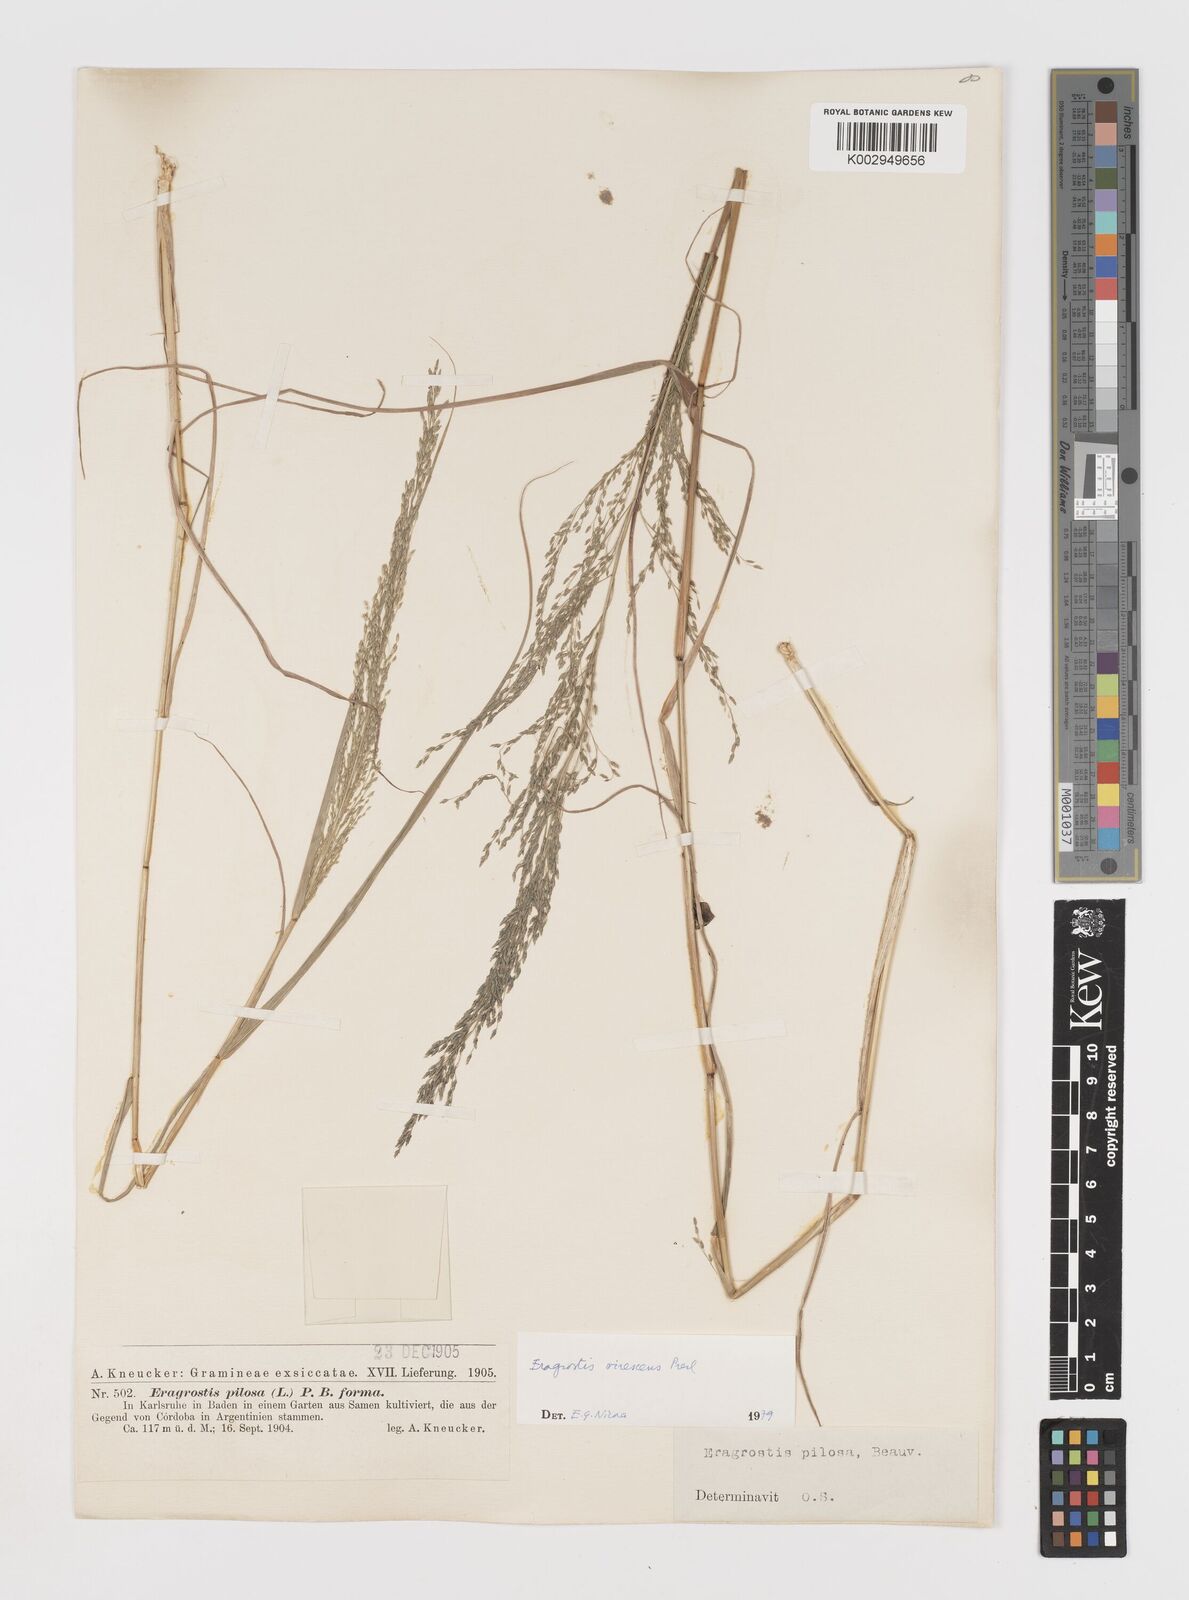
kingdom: Plantae
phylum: Tracheophyta
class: Liliopsida
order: Poales
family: Poaceae
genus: Eragrostis
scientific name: Eragrostis mexicana
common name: Mexican love grass
